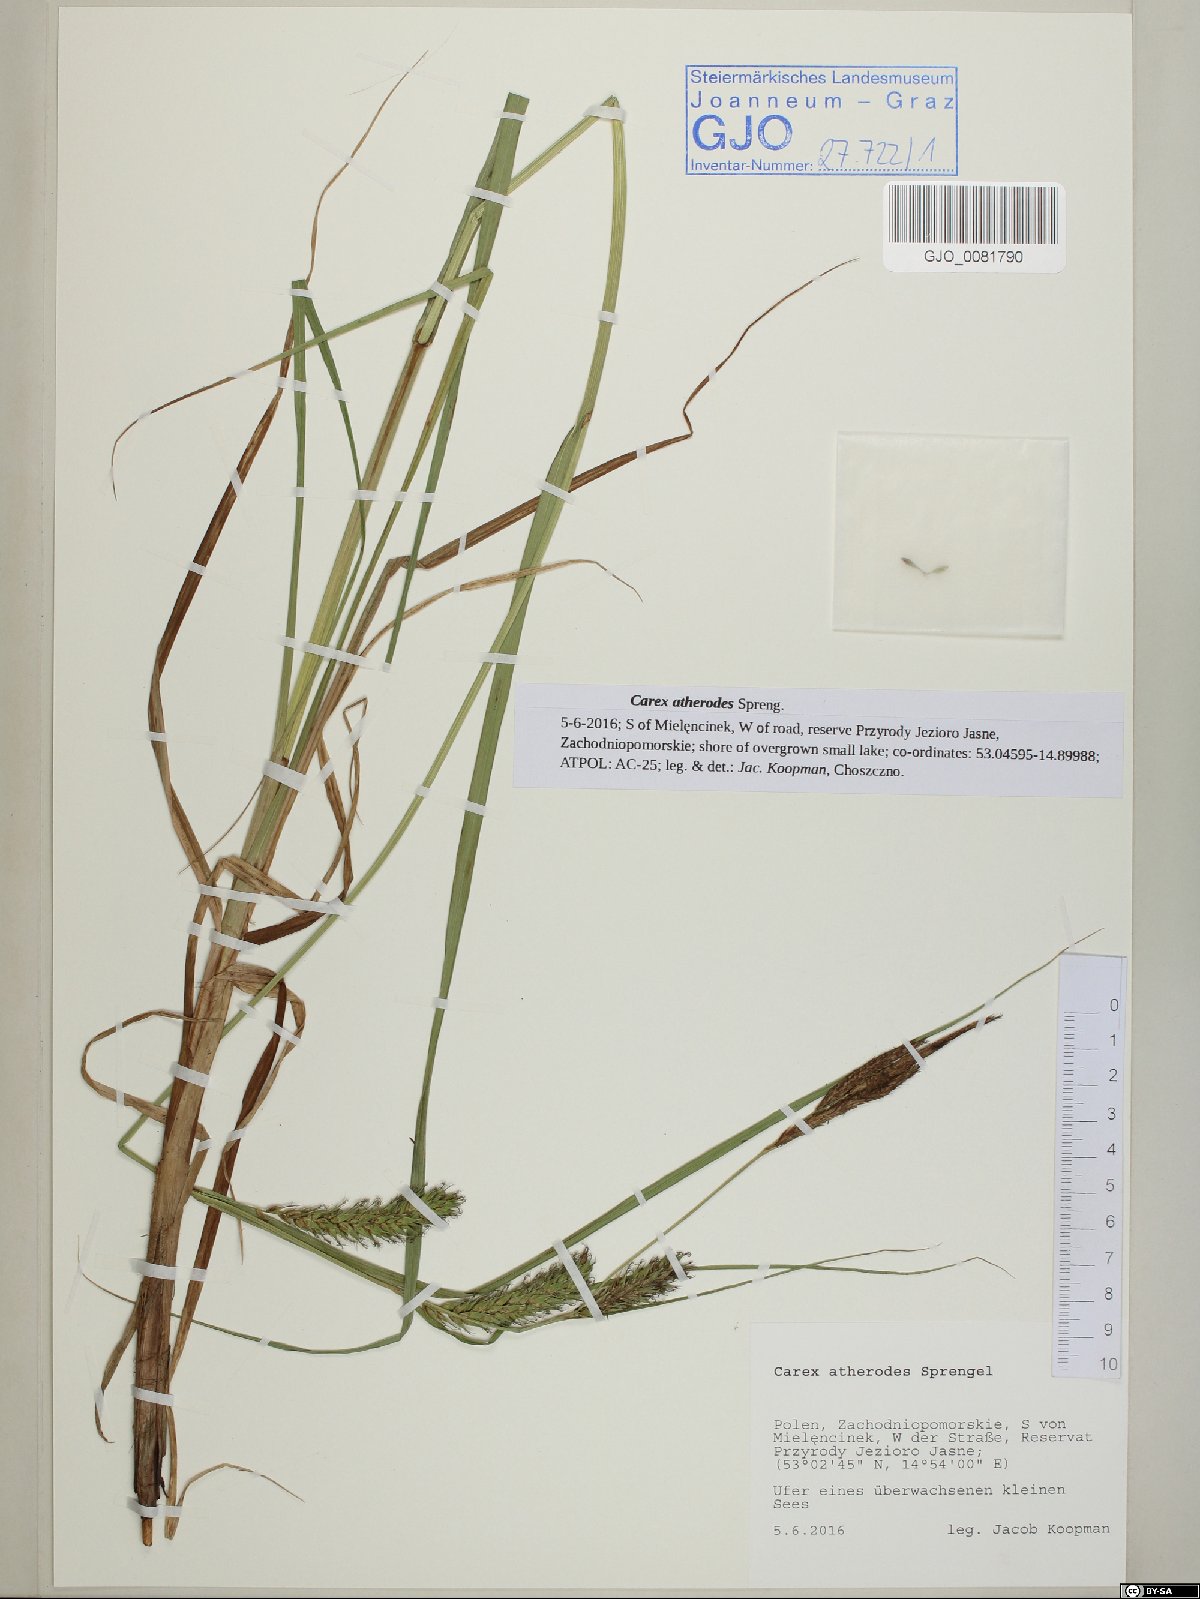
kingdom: Plantae
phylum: Tracheophyta
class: Liliopsida
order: Poales
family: Cyperaceae
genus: Carex
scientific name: Carex atherodes
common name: Wheat sedge
